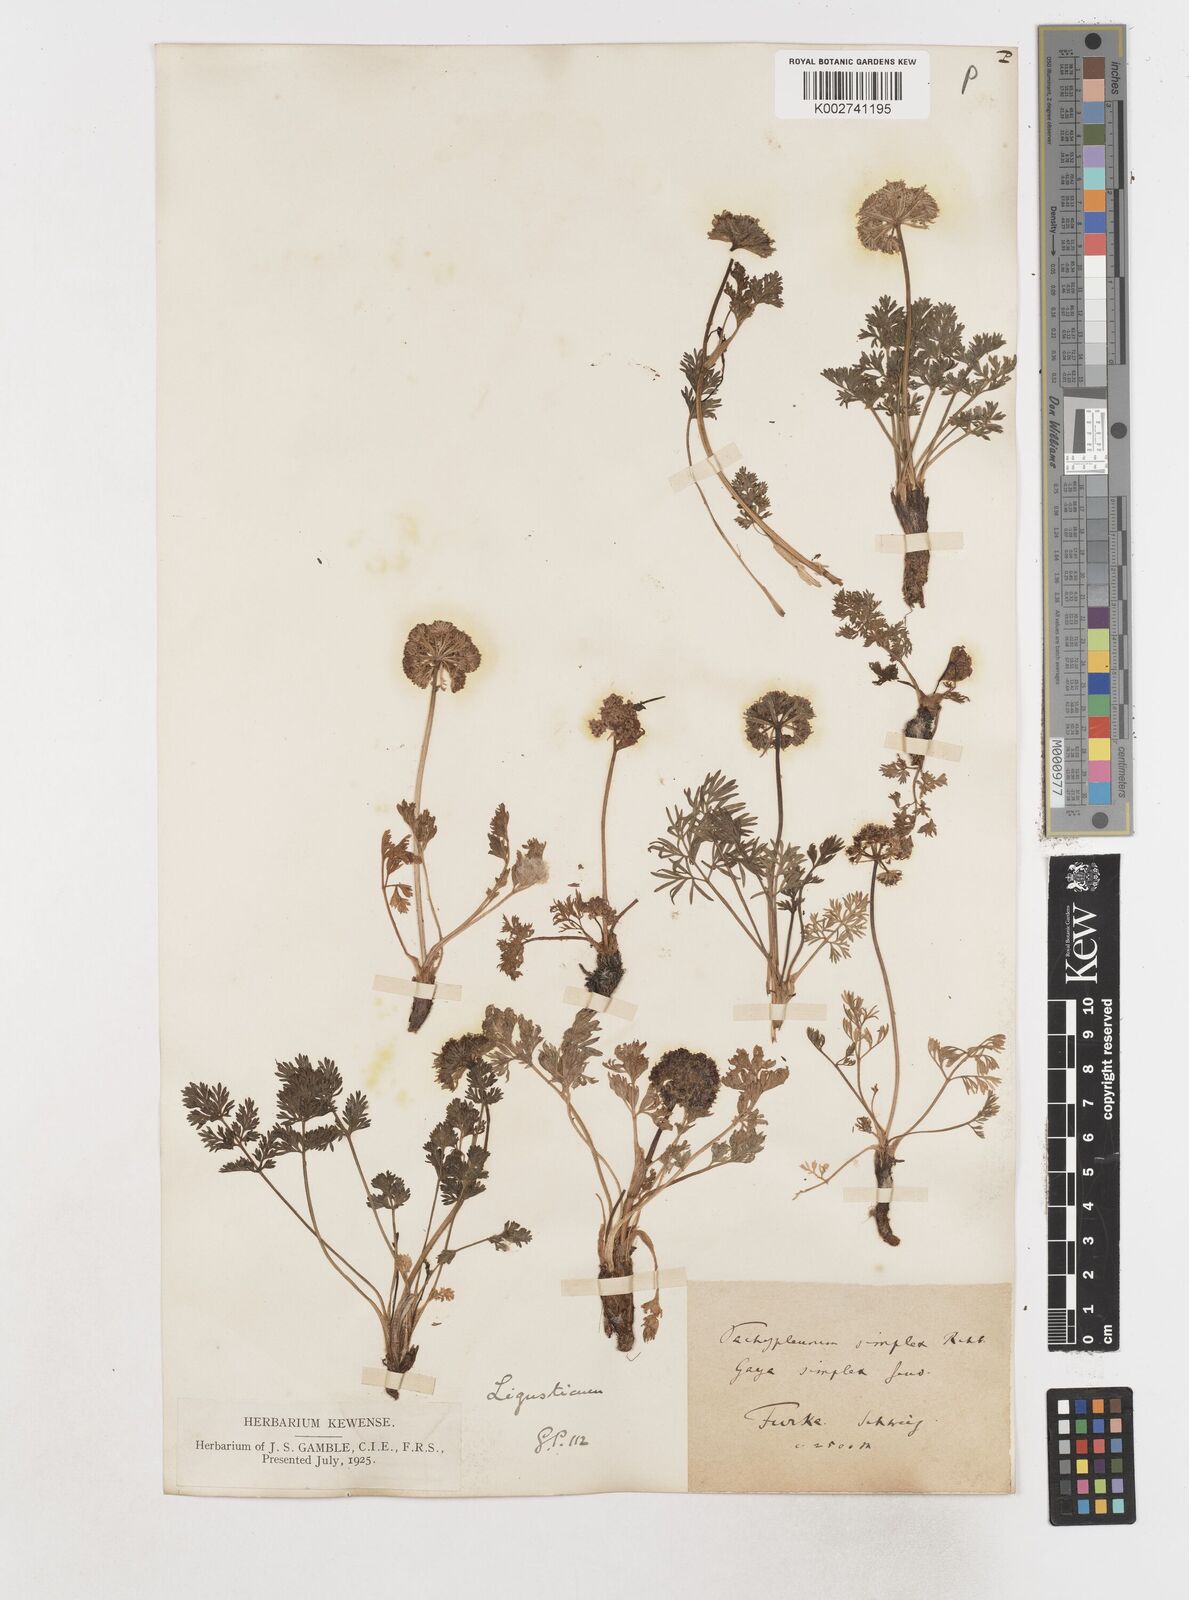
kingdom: Plantae
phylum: Tracheophyta
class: Magnoliopsida
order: Apiales
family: Apiaceae
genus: Pachypleurum
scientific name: Pachypleurum mutellinoides
